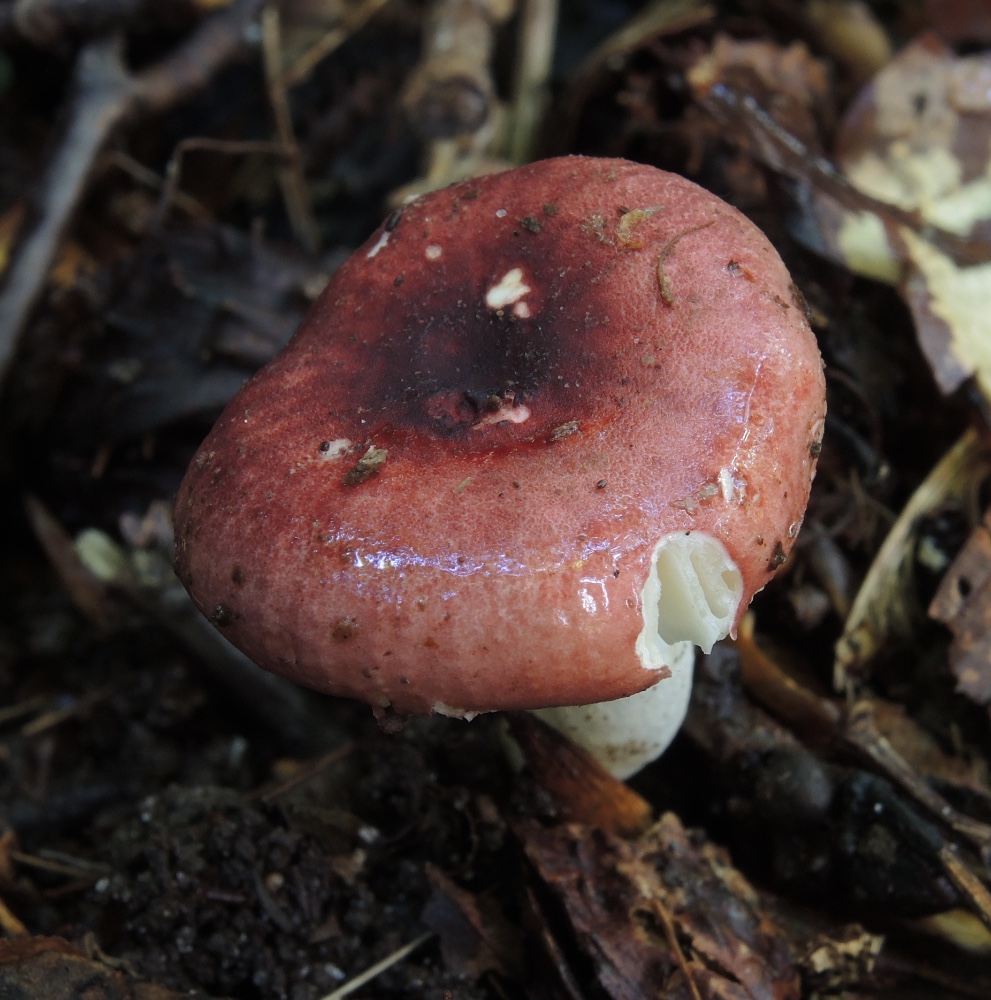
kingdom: Fungi
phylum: Basidiomycota
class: Agaricomycetes
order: Russulales
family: Russulaceae
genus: Russula
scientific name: Russula melzeri
